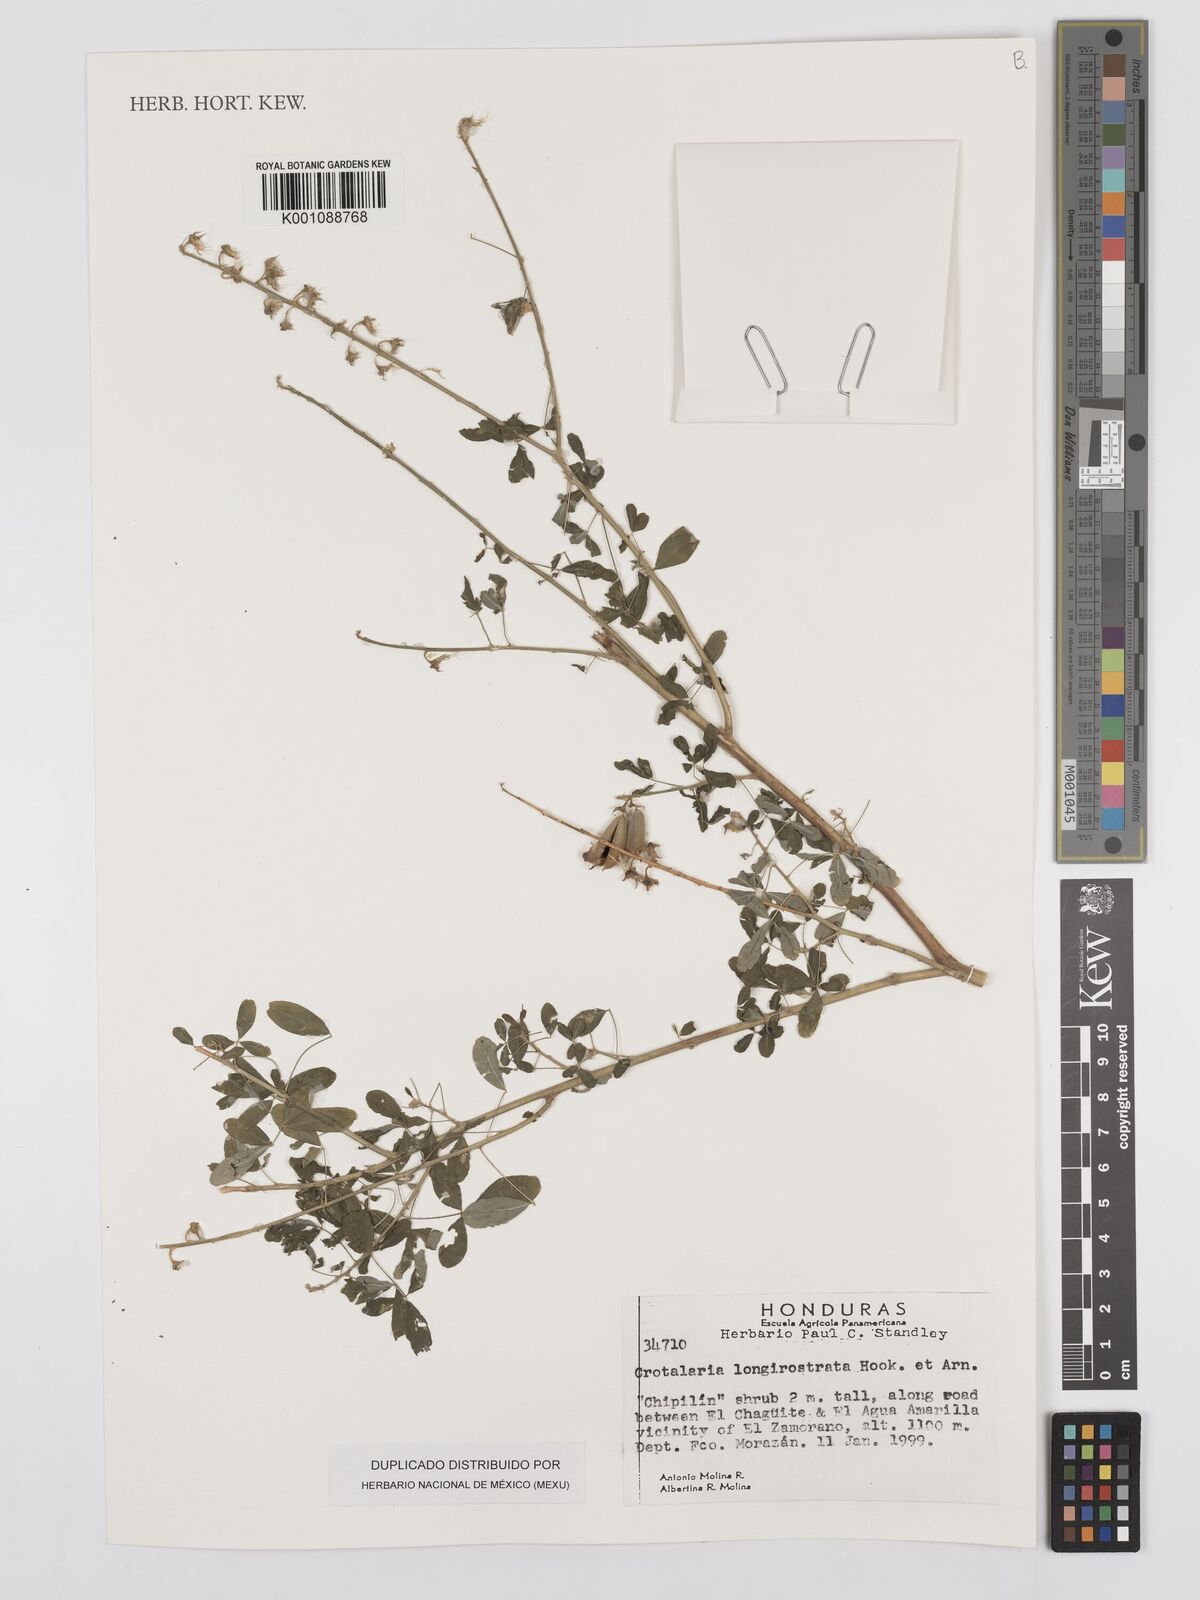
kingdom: Plantae
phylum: Tracheophyta
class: Magnoliopsida
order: Fabales
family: Fabaceae
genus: Crotalaria
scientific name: Crotalaria longirostrata
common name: Longbeak rattlebox
